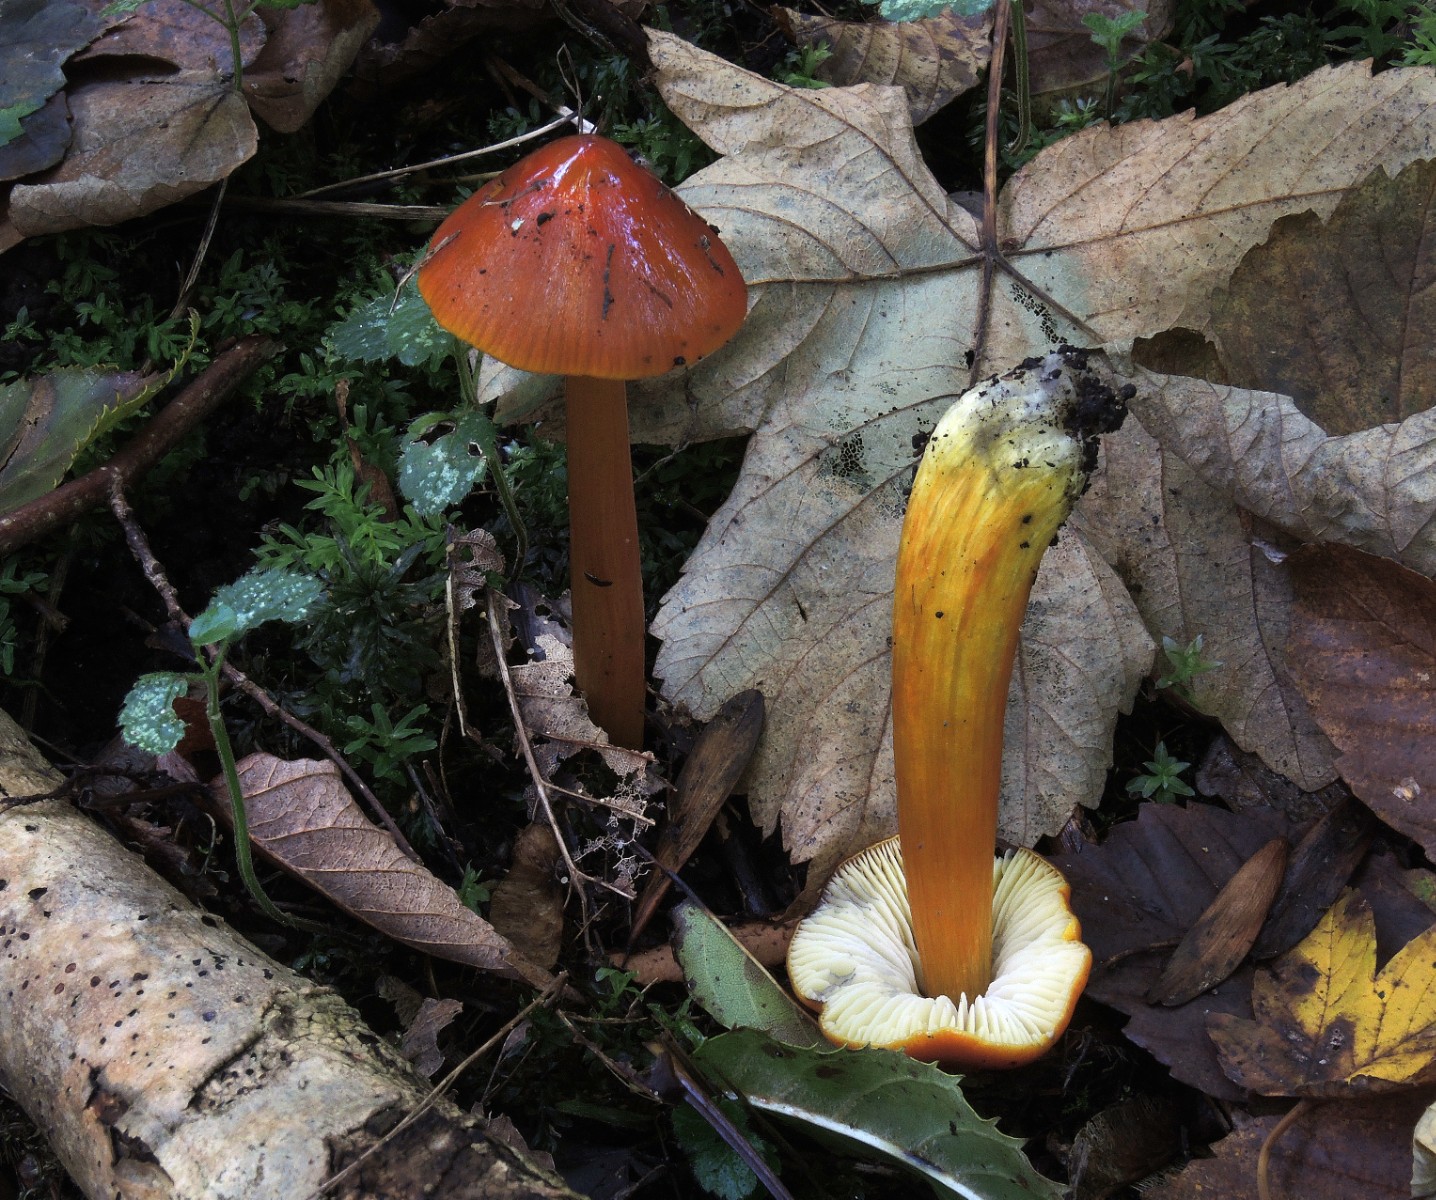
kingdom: Fungi
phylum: Basidiomycota
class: Agaricomycetes
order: Agaricales
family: Hygrophoraceae
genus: Hygrocybe
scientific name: Hygrocybe conica
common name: kegle-vokshat
